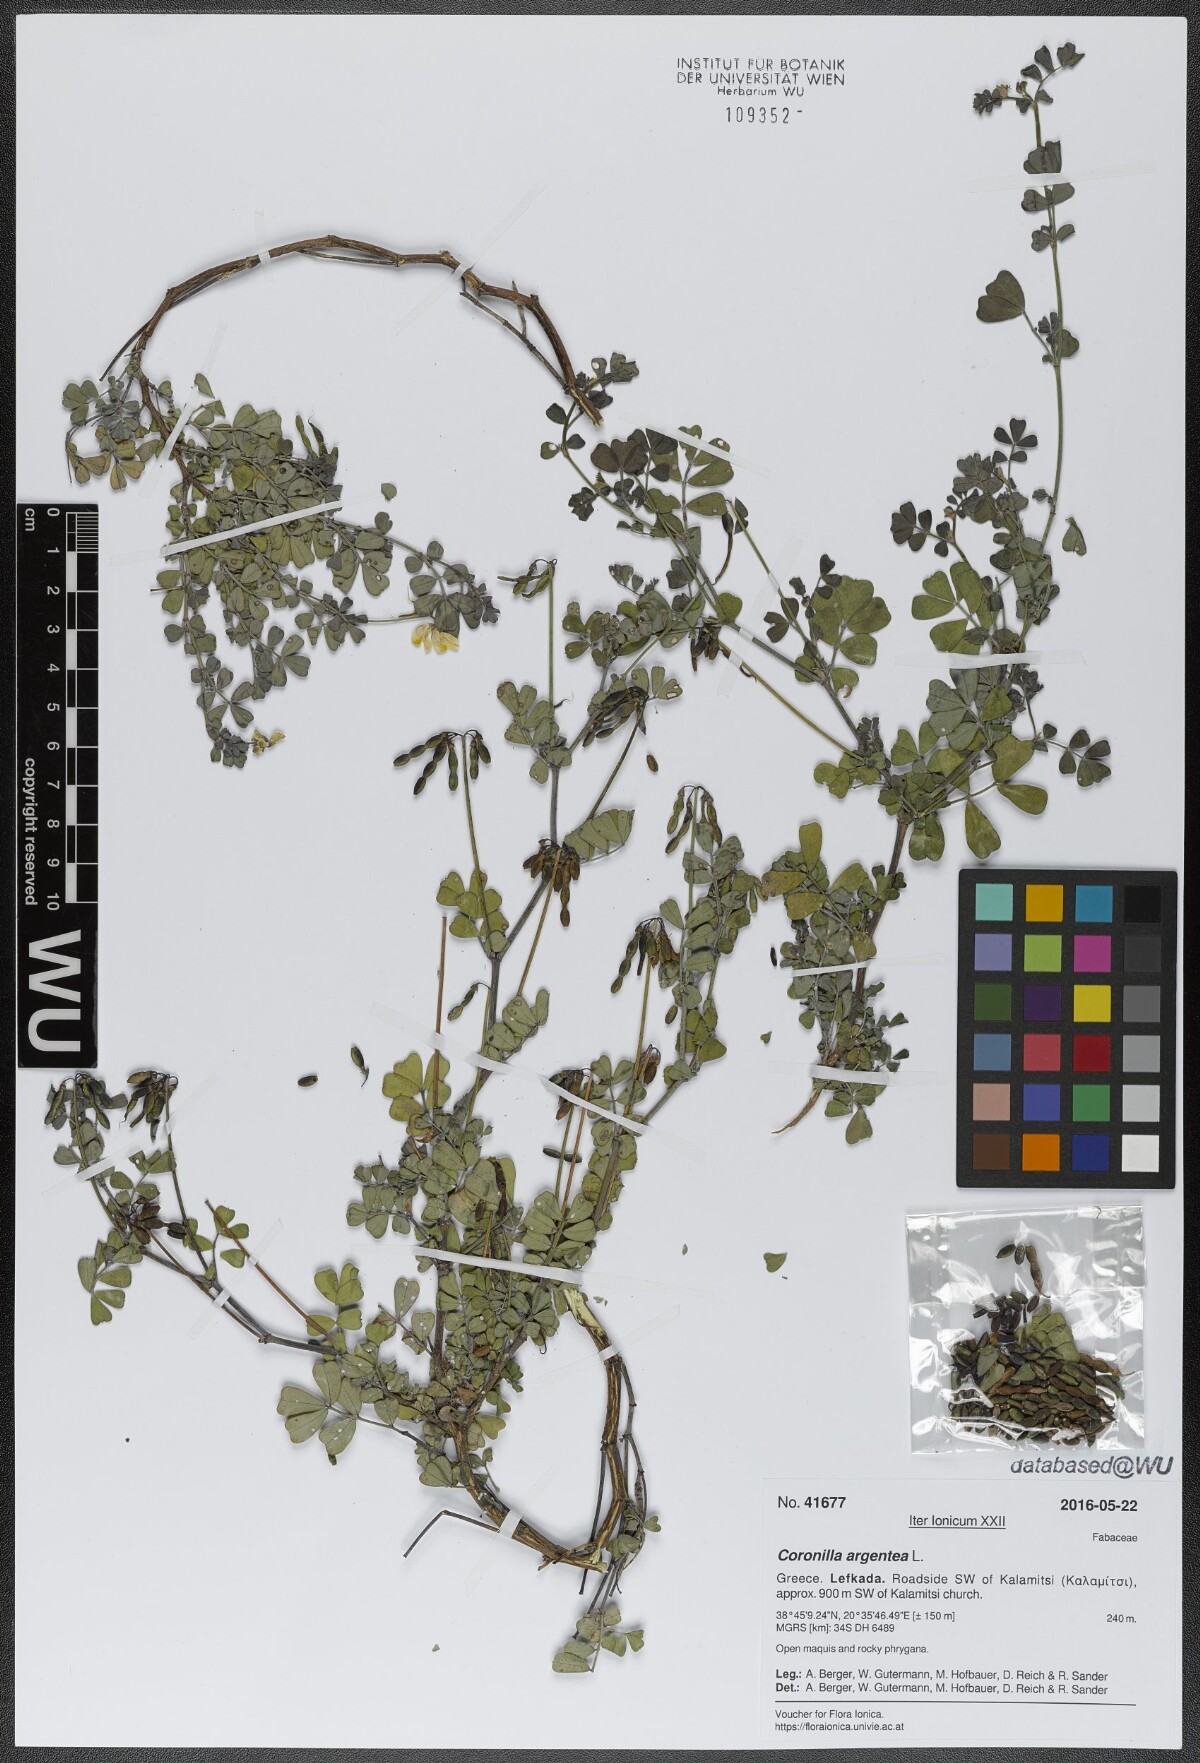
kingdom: Plantae
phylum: Tracheophyta
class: Magnoliopsida
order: Fabales
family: Fabaceae
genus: Coronilla
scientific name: Coronilla valentina
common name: Shrubby scorpion-vetch
